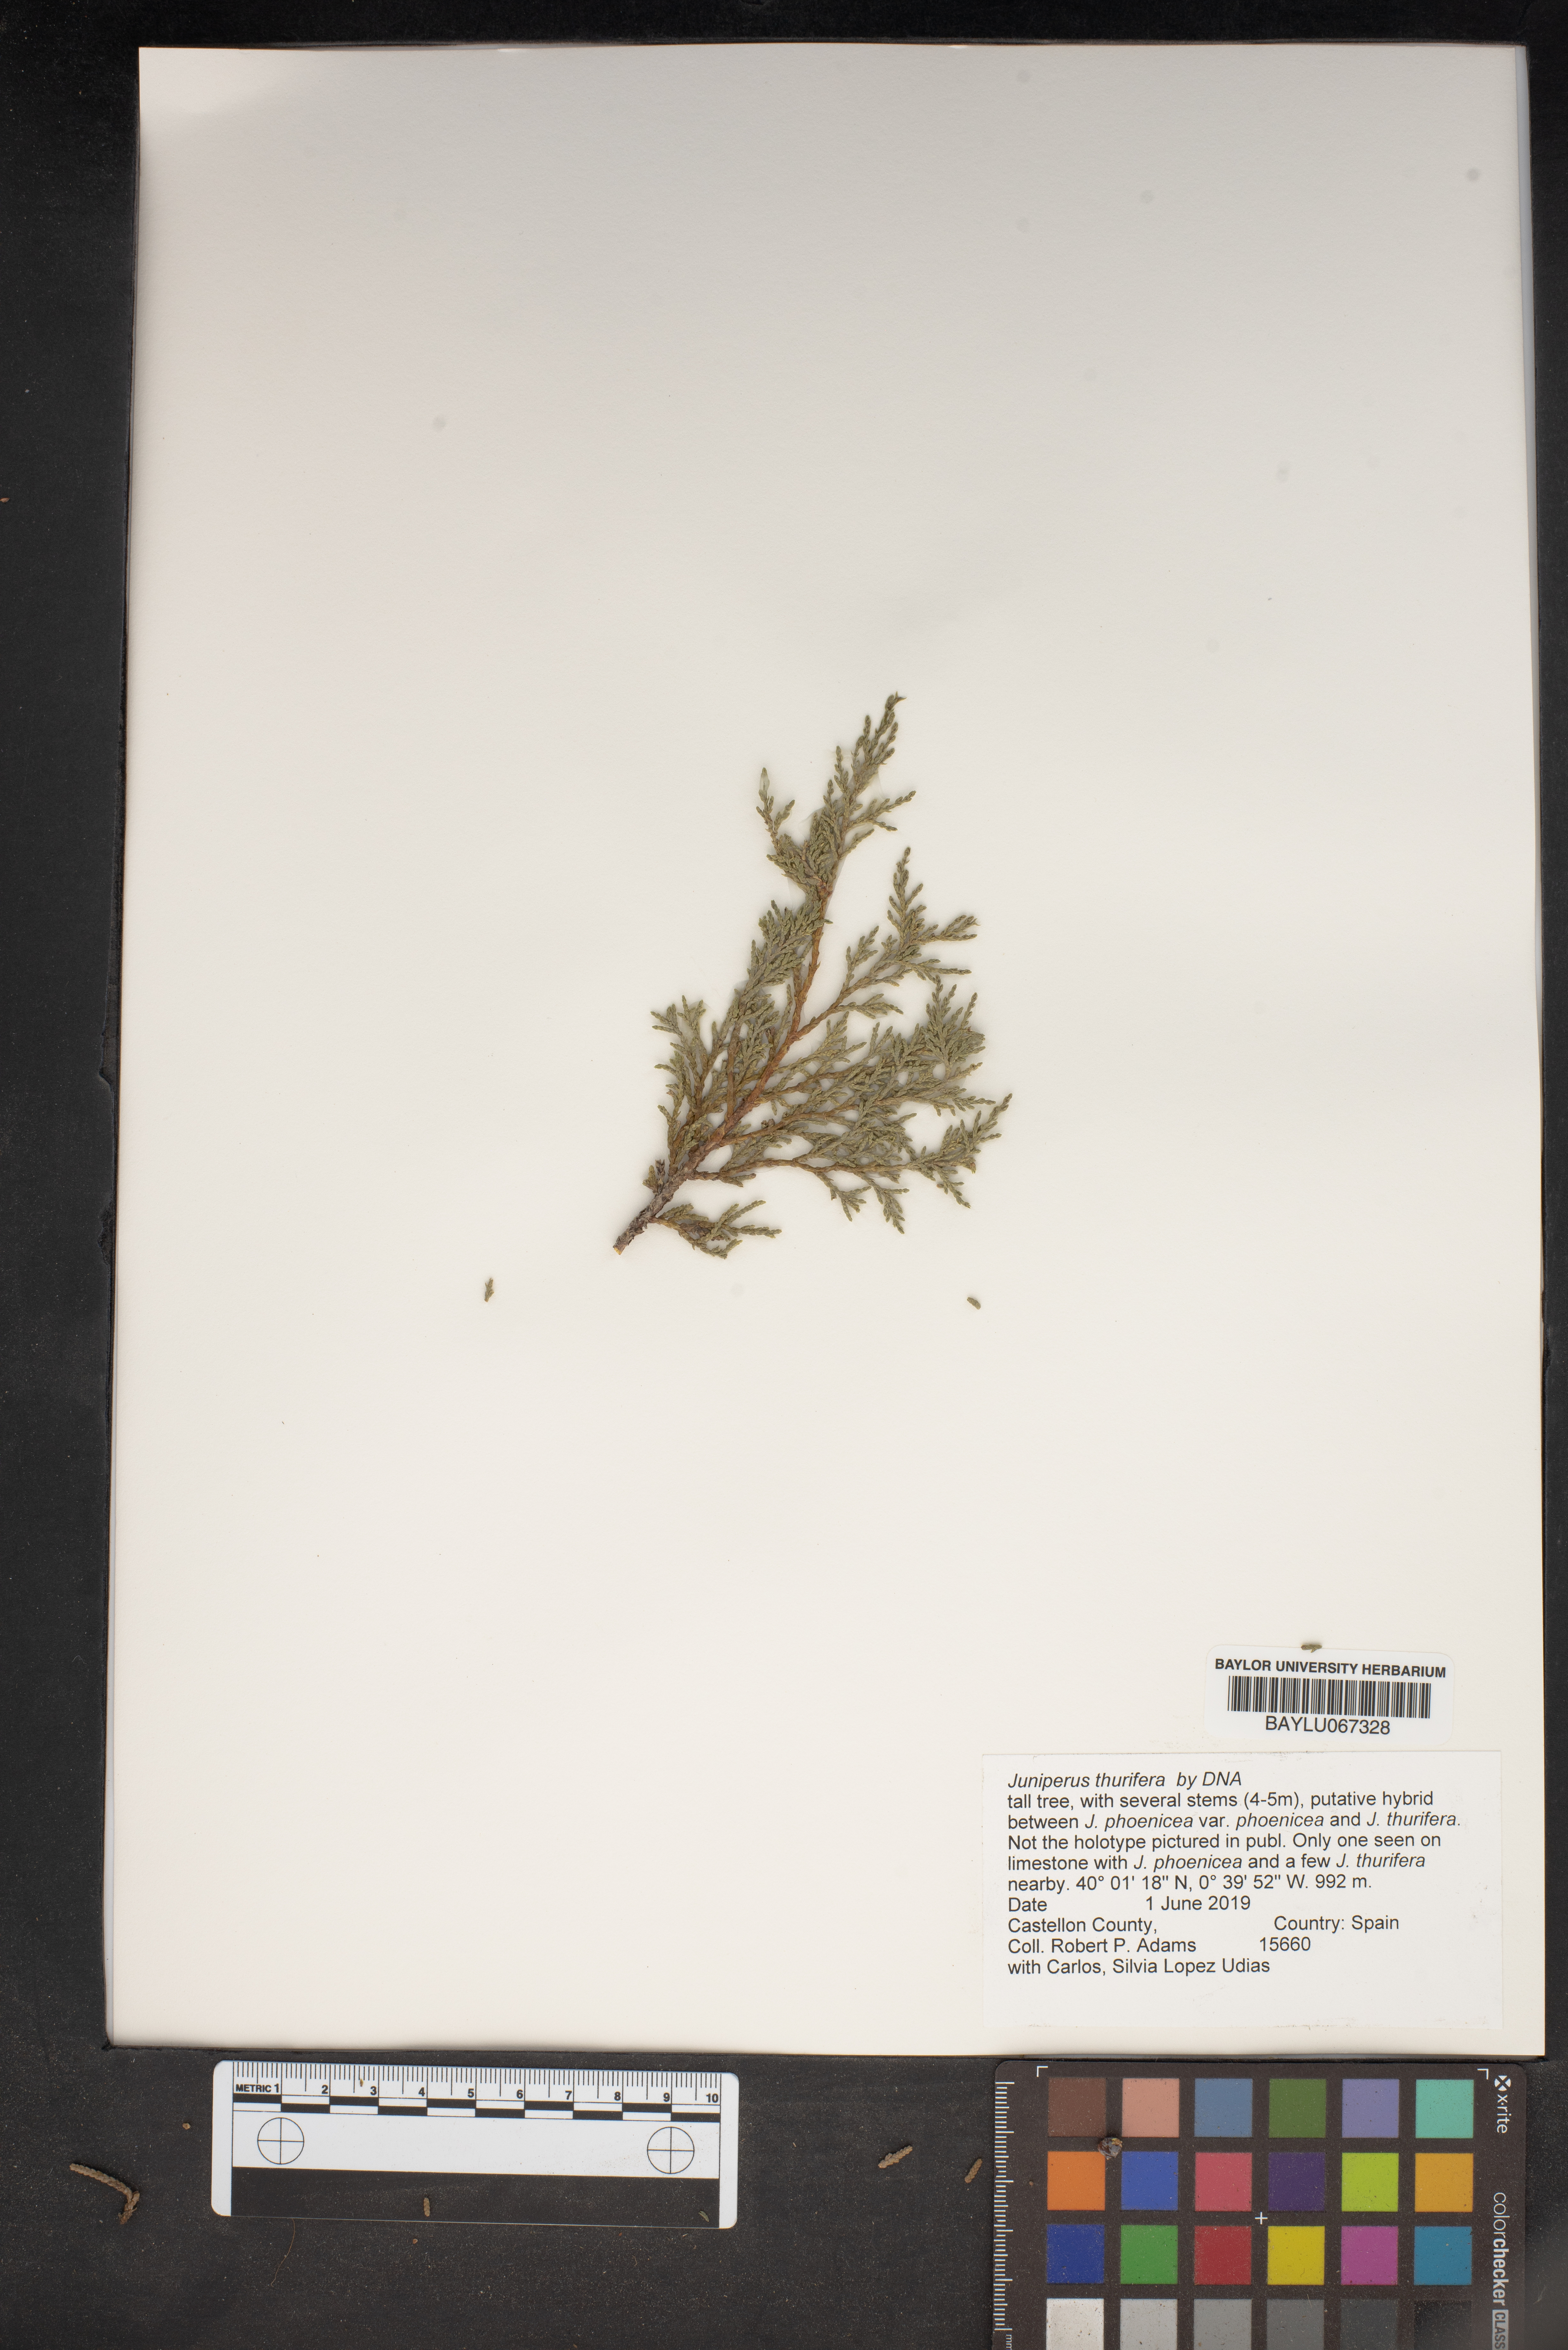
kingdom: Plantae
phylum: Tracheophyta
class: Pinopsida
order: Pinales
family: Cupressaceae
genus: Juniperus
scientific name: Juniperus thurifera
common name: Incense juniper
